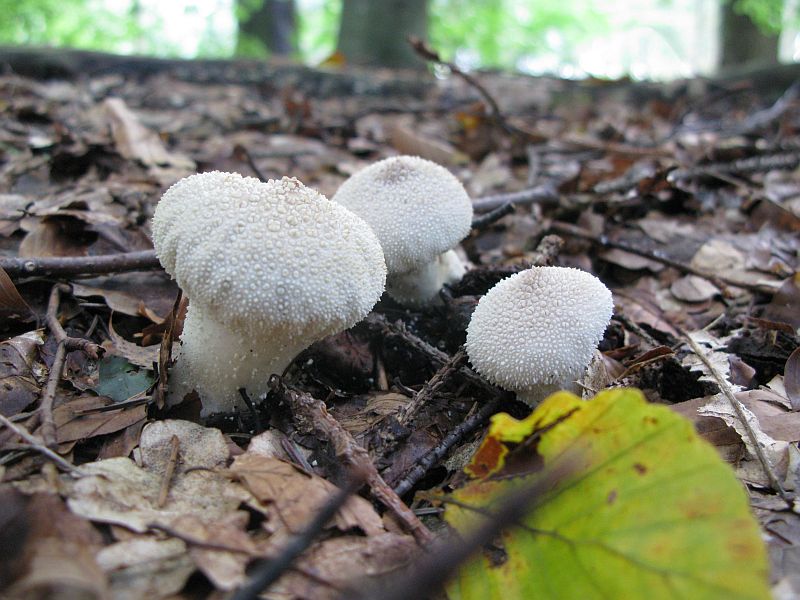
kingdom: Fungi
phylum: Basidiomycota
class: Agaricomycetes
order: Agaricales
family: Lycoperdaceae
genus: Lycoperdon
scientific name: Lycoperdon perlatum
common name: krystal-støvbold
